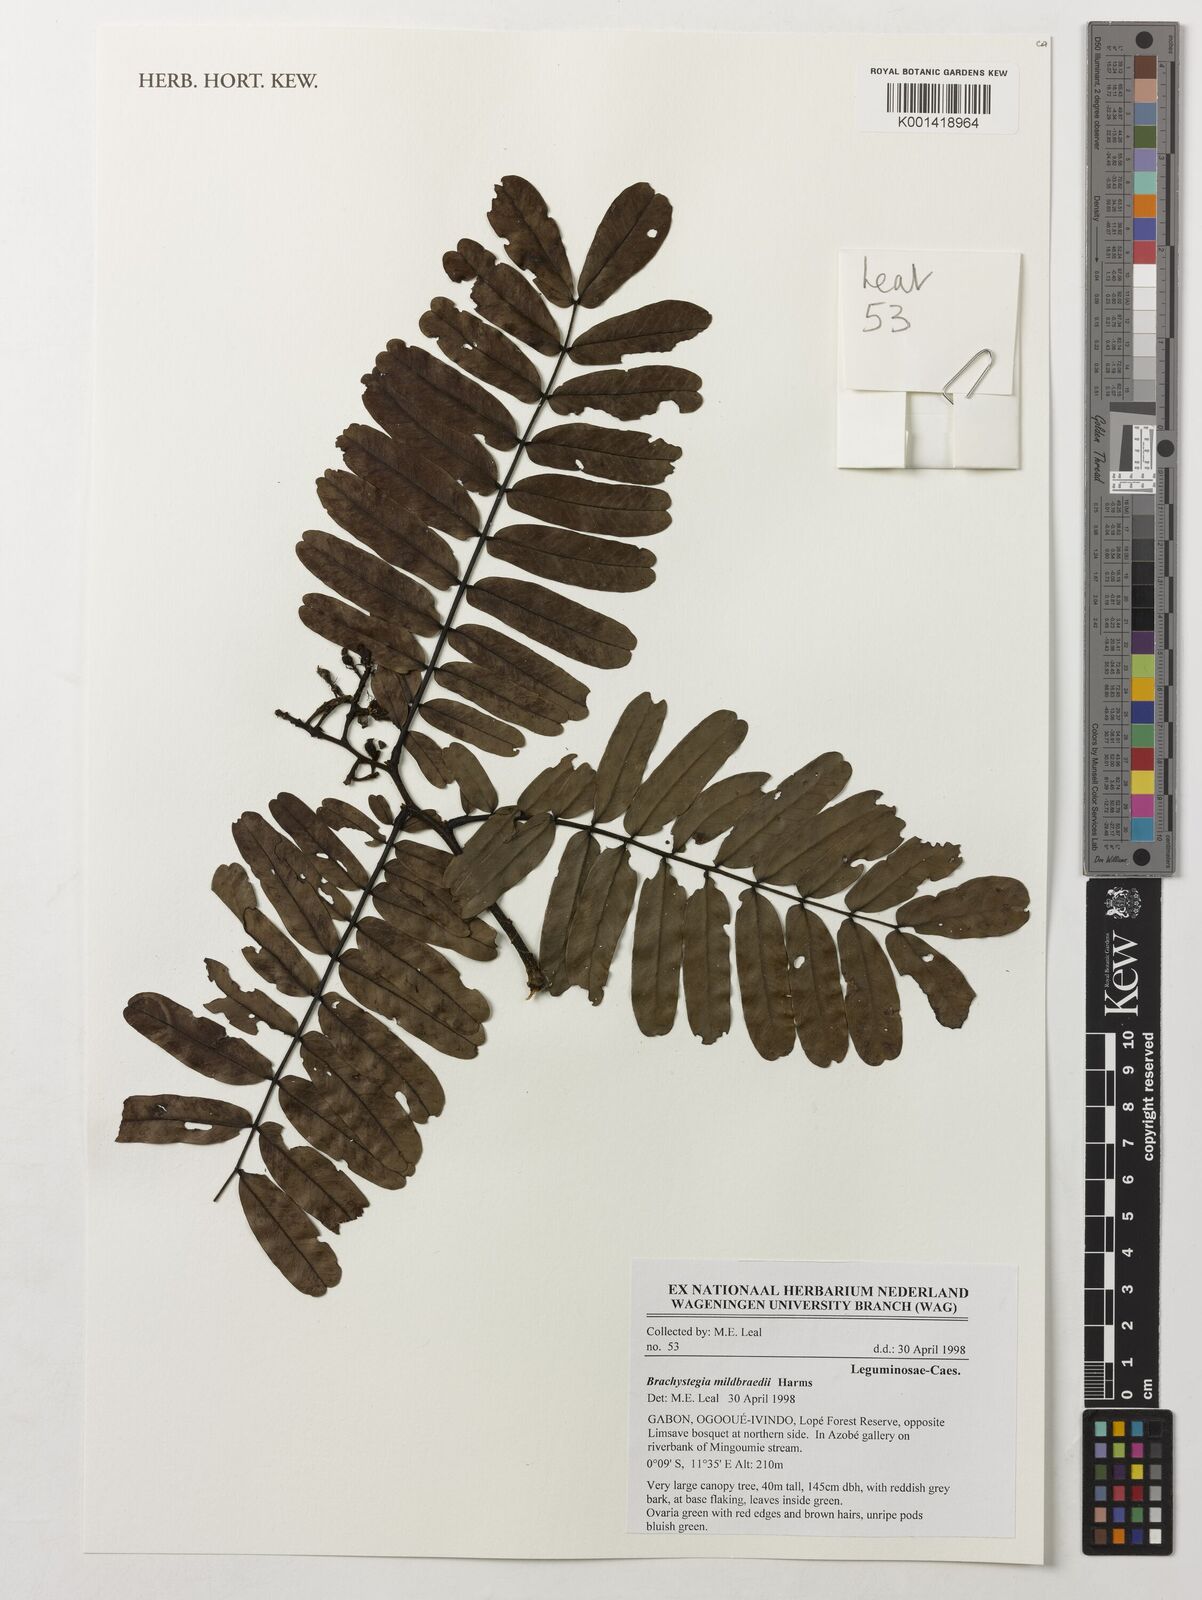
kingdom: Plantae
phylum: Tracheophyta
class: Magnoliopsida
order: Fabales
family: Fabaceae
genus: Brachystegia
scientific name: Brachystegia mildbraedii
